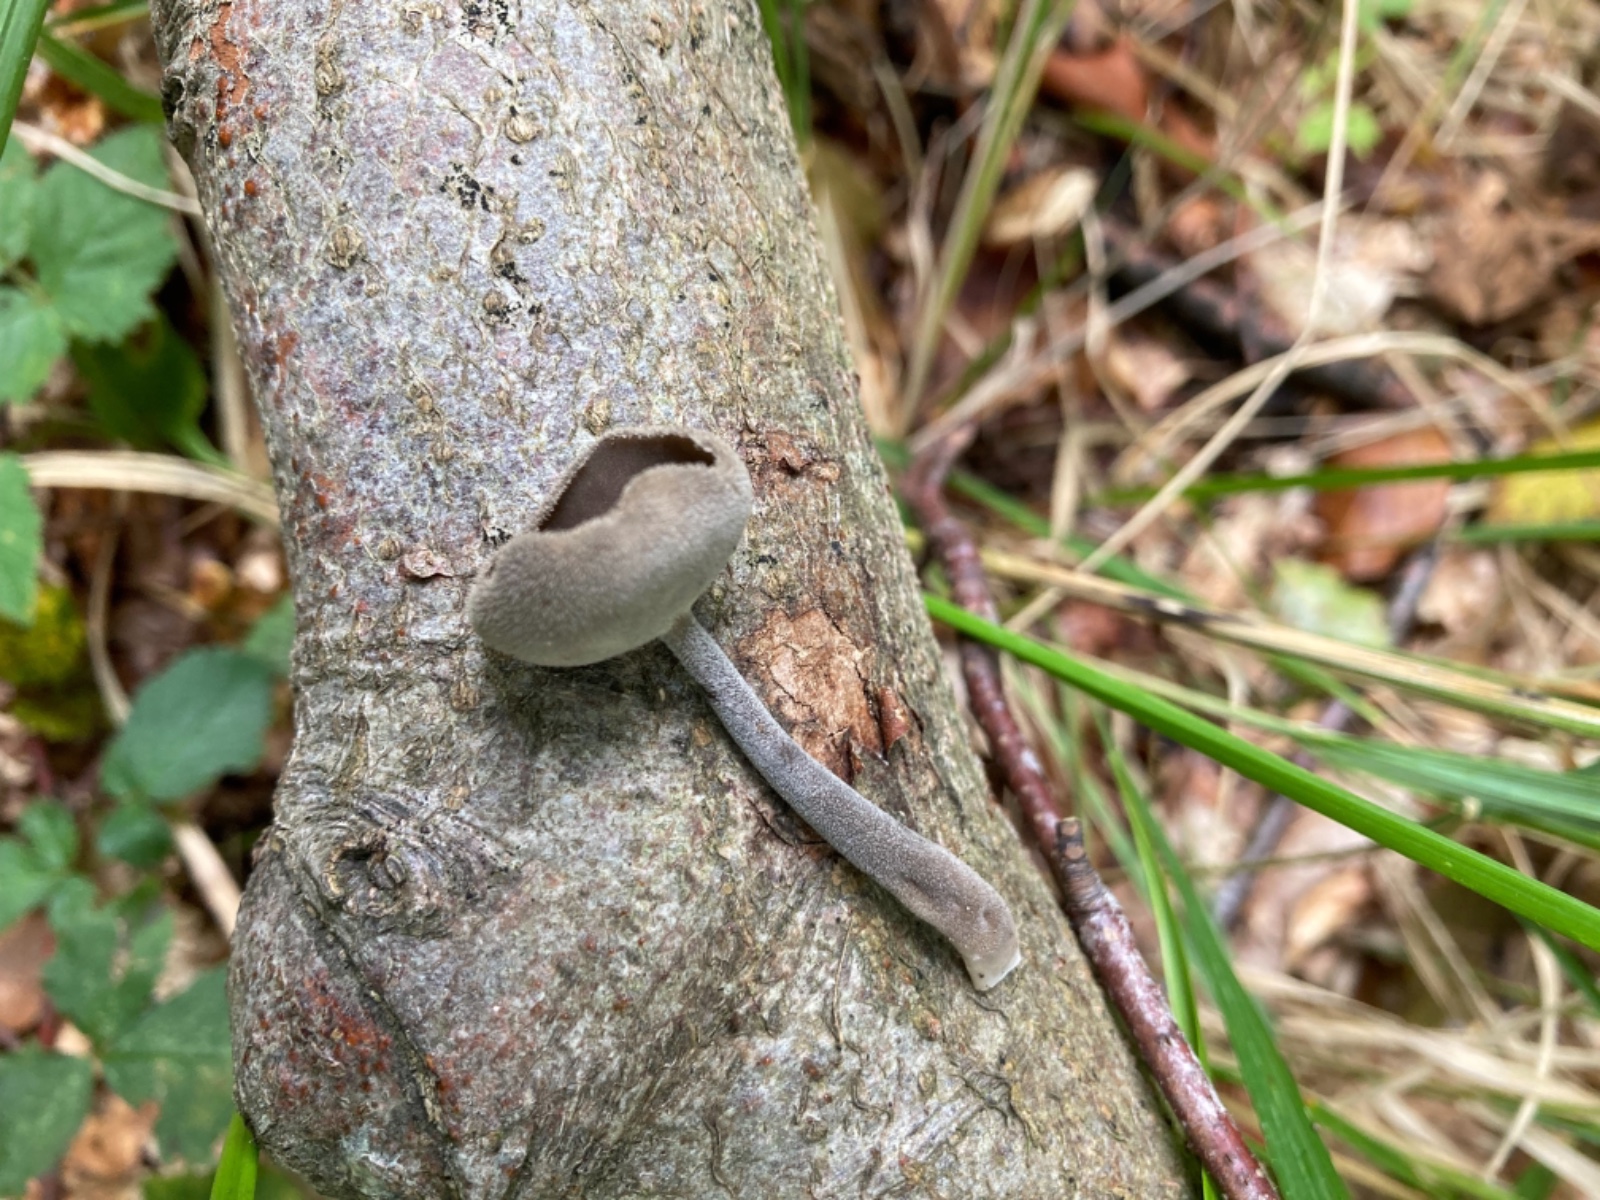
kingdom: Fungi
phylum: Ascomycota
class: Pezizomycetes
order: Pezizales
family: Helvellaceae
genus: Helvella
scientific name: Helvella
